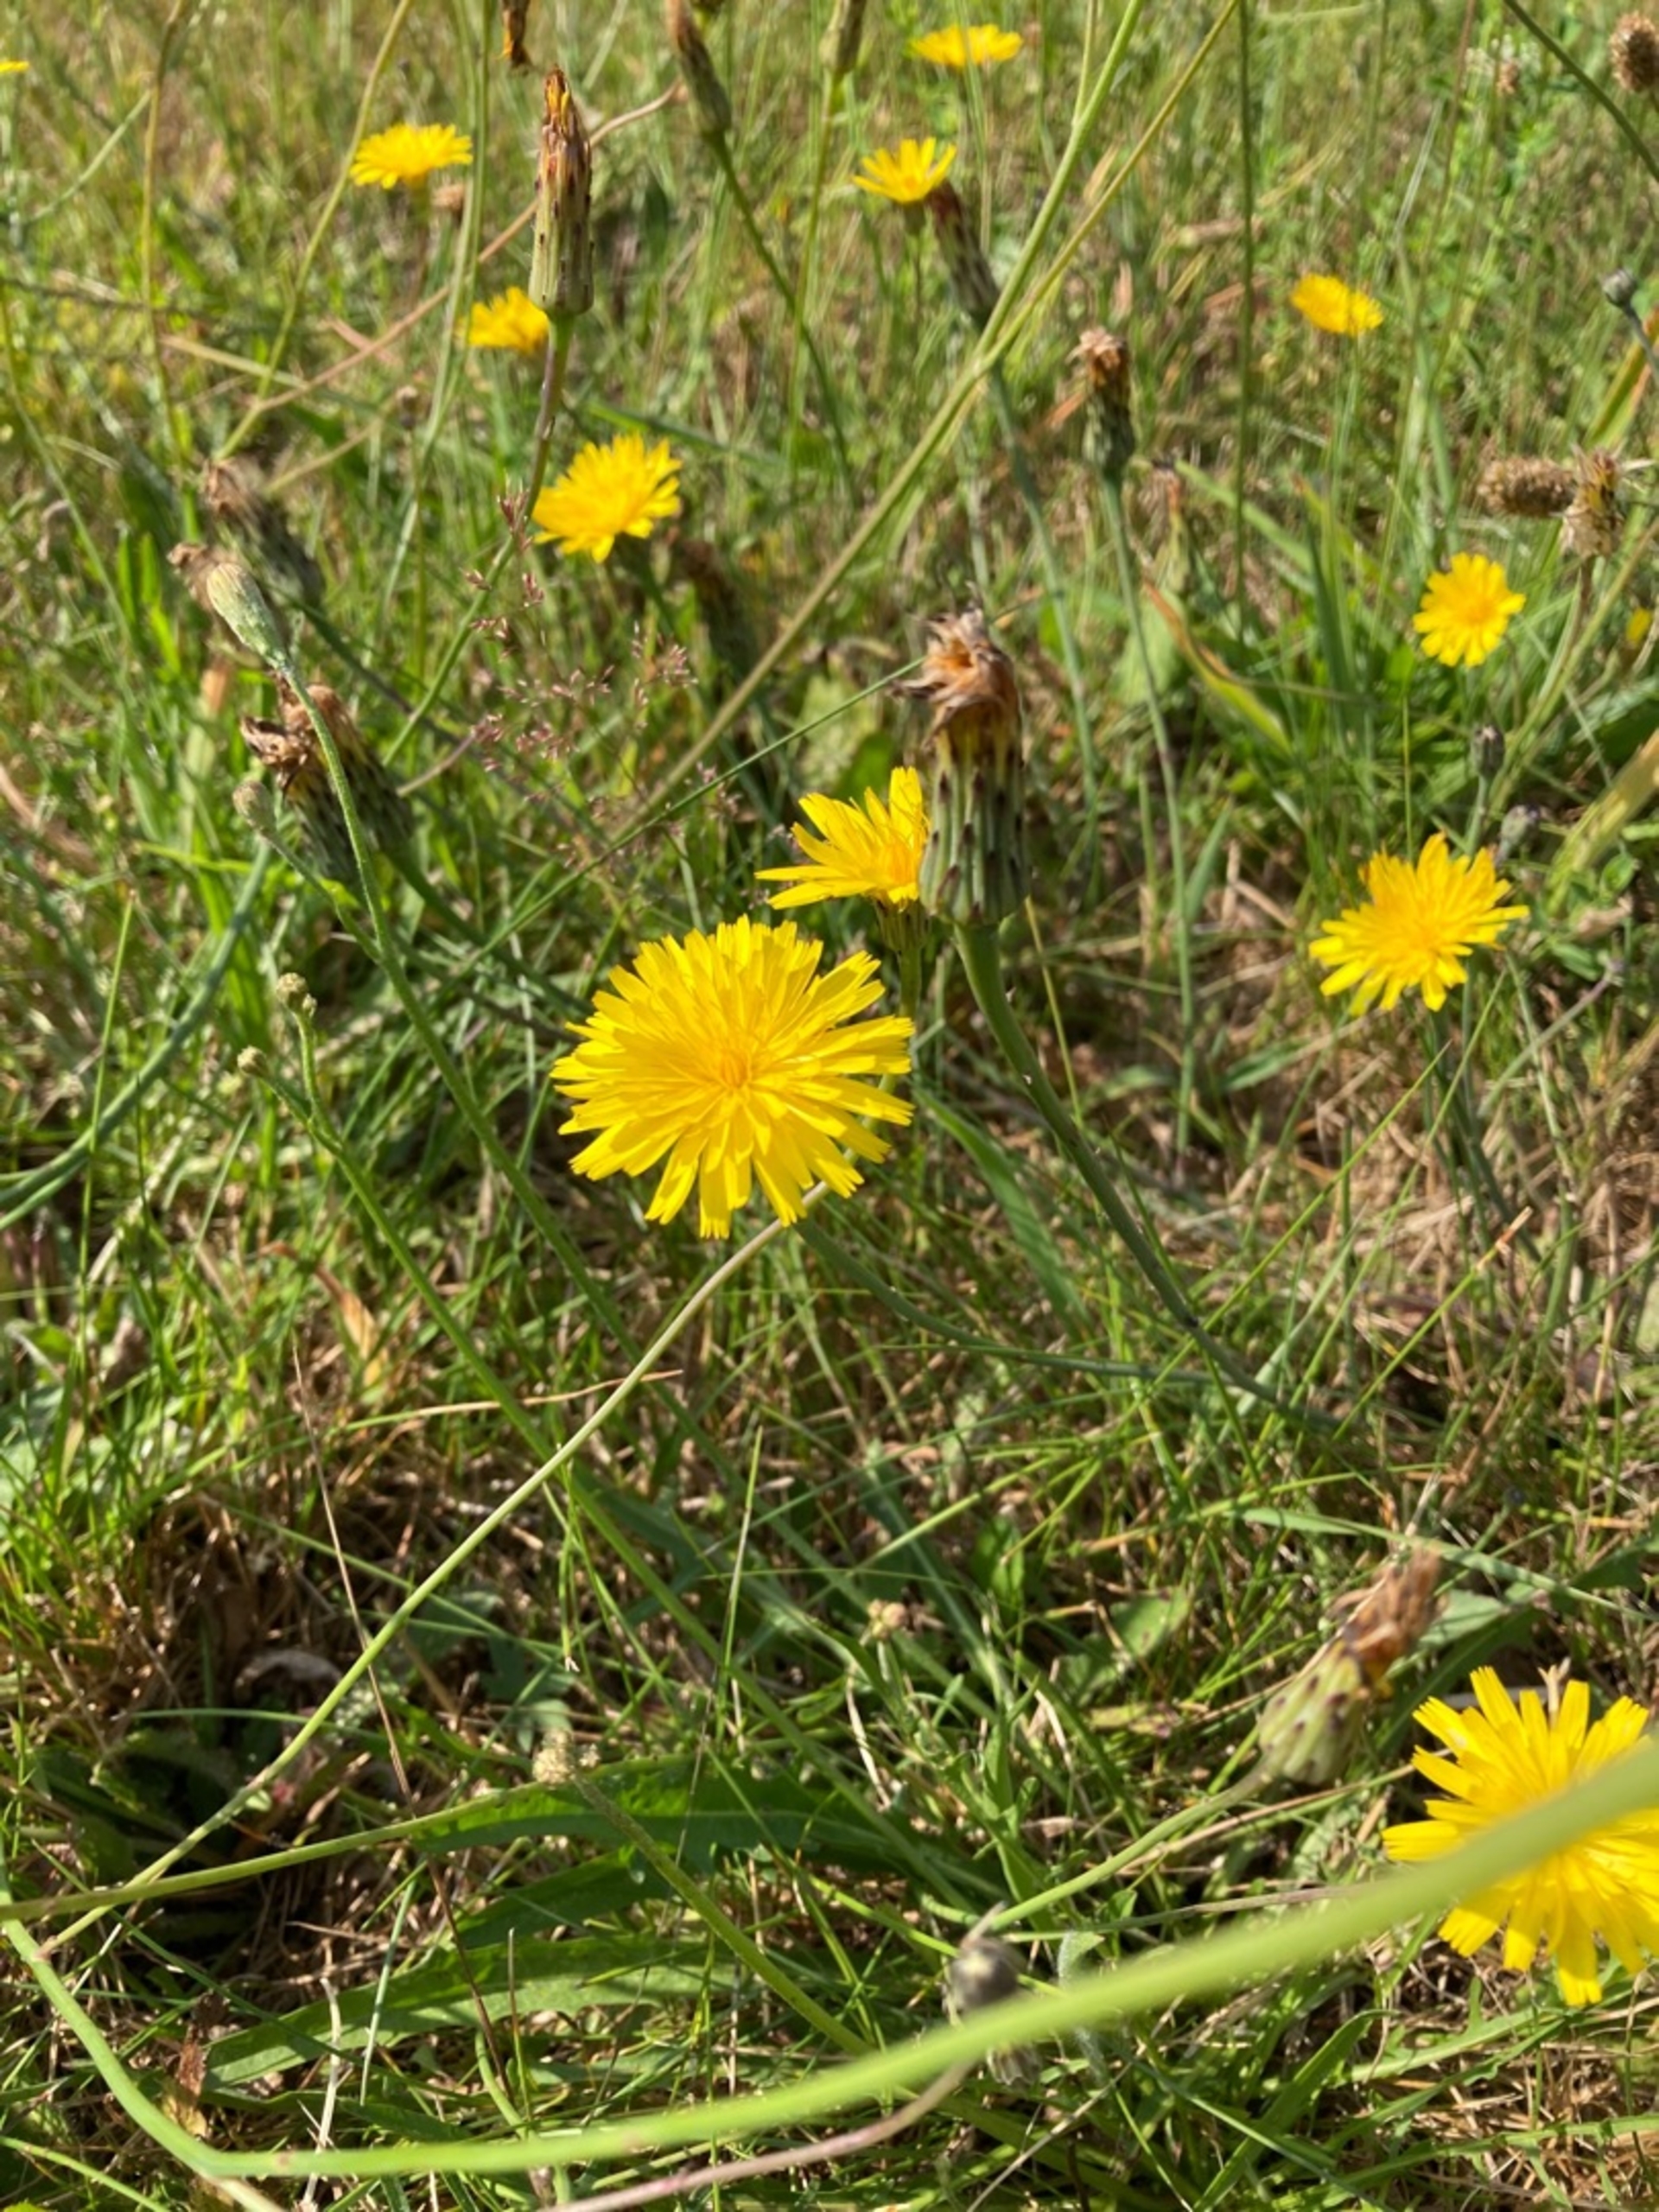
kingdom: Plantae
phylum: Tracheophyta
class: Magnoliopsida
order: Asterales
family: Asteraceae
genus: Hypochaeris
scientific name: Hypochaeris radicata
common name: Almindelig kongepen
